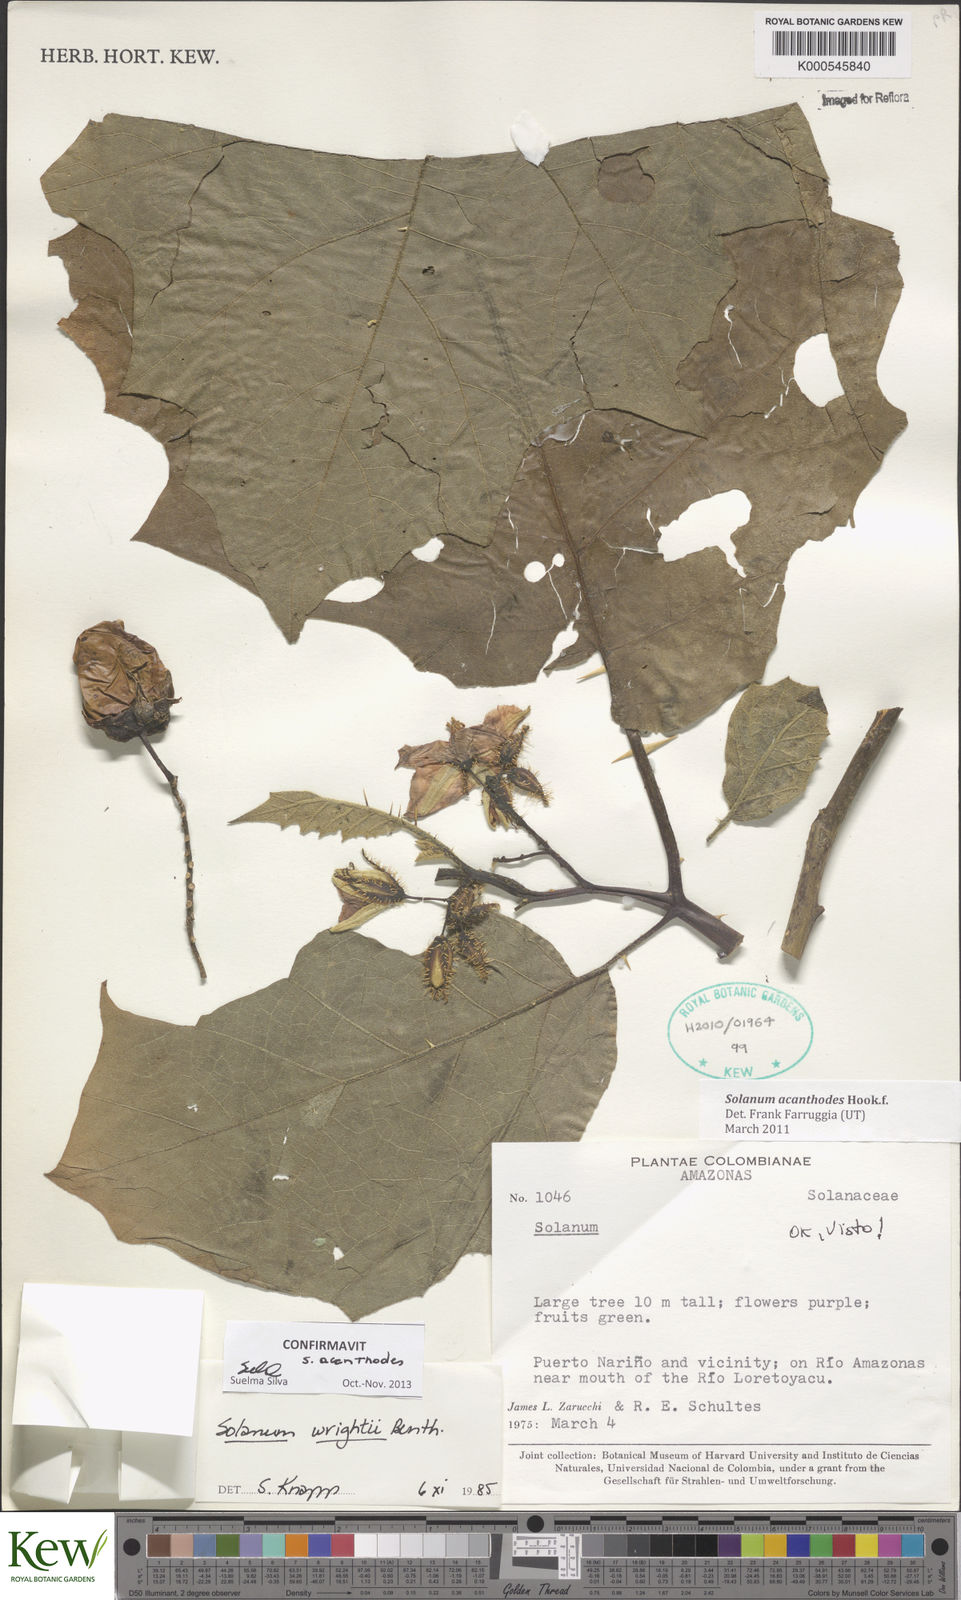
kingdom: Plantae
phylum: Tracheophyta
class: Magnoliopsida
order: Solanales
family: Solanaceae
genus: Solanum
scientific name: Solanum vanheurckii
